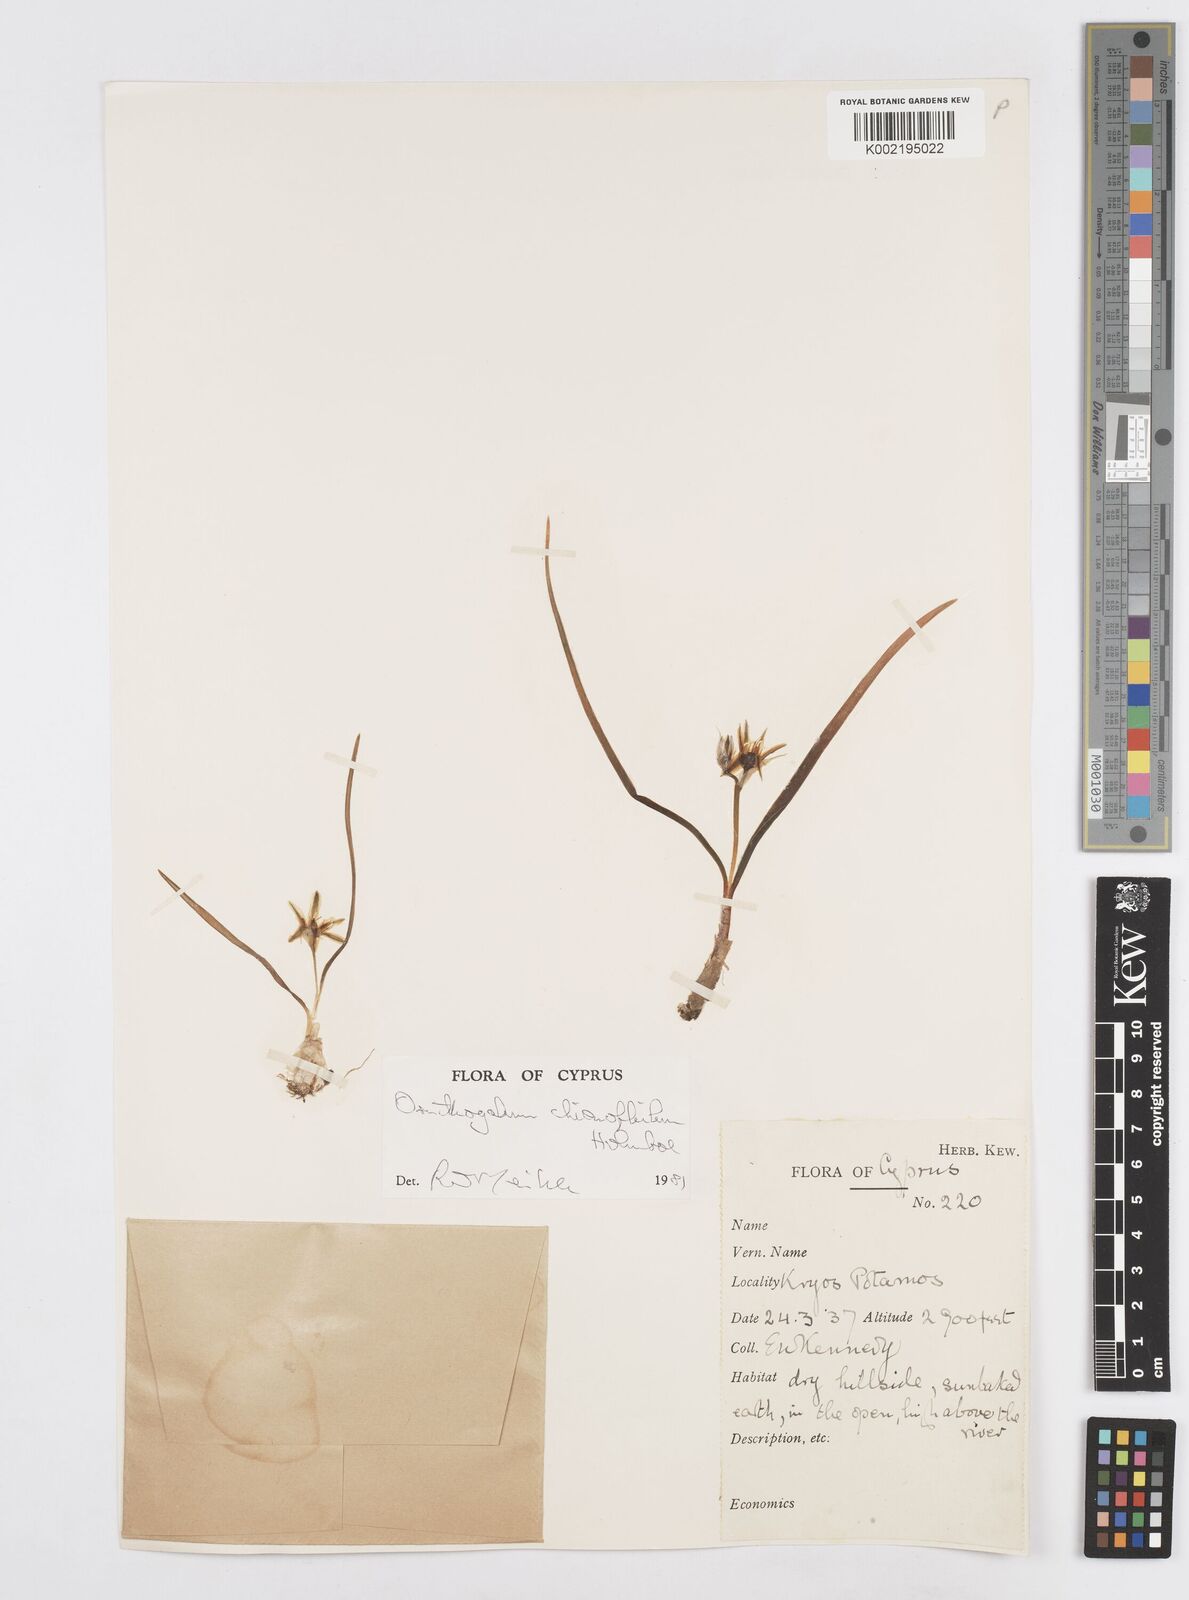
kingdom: Plantae
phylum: Tracheophyta
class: Liliopsida
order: Asparagales
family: Asparagaceae
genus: Ornithogalum
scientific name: Ornithogalum chionophilum
